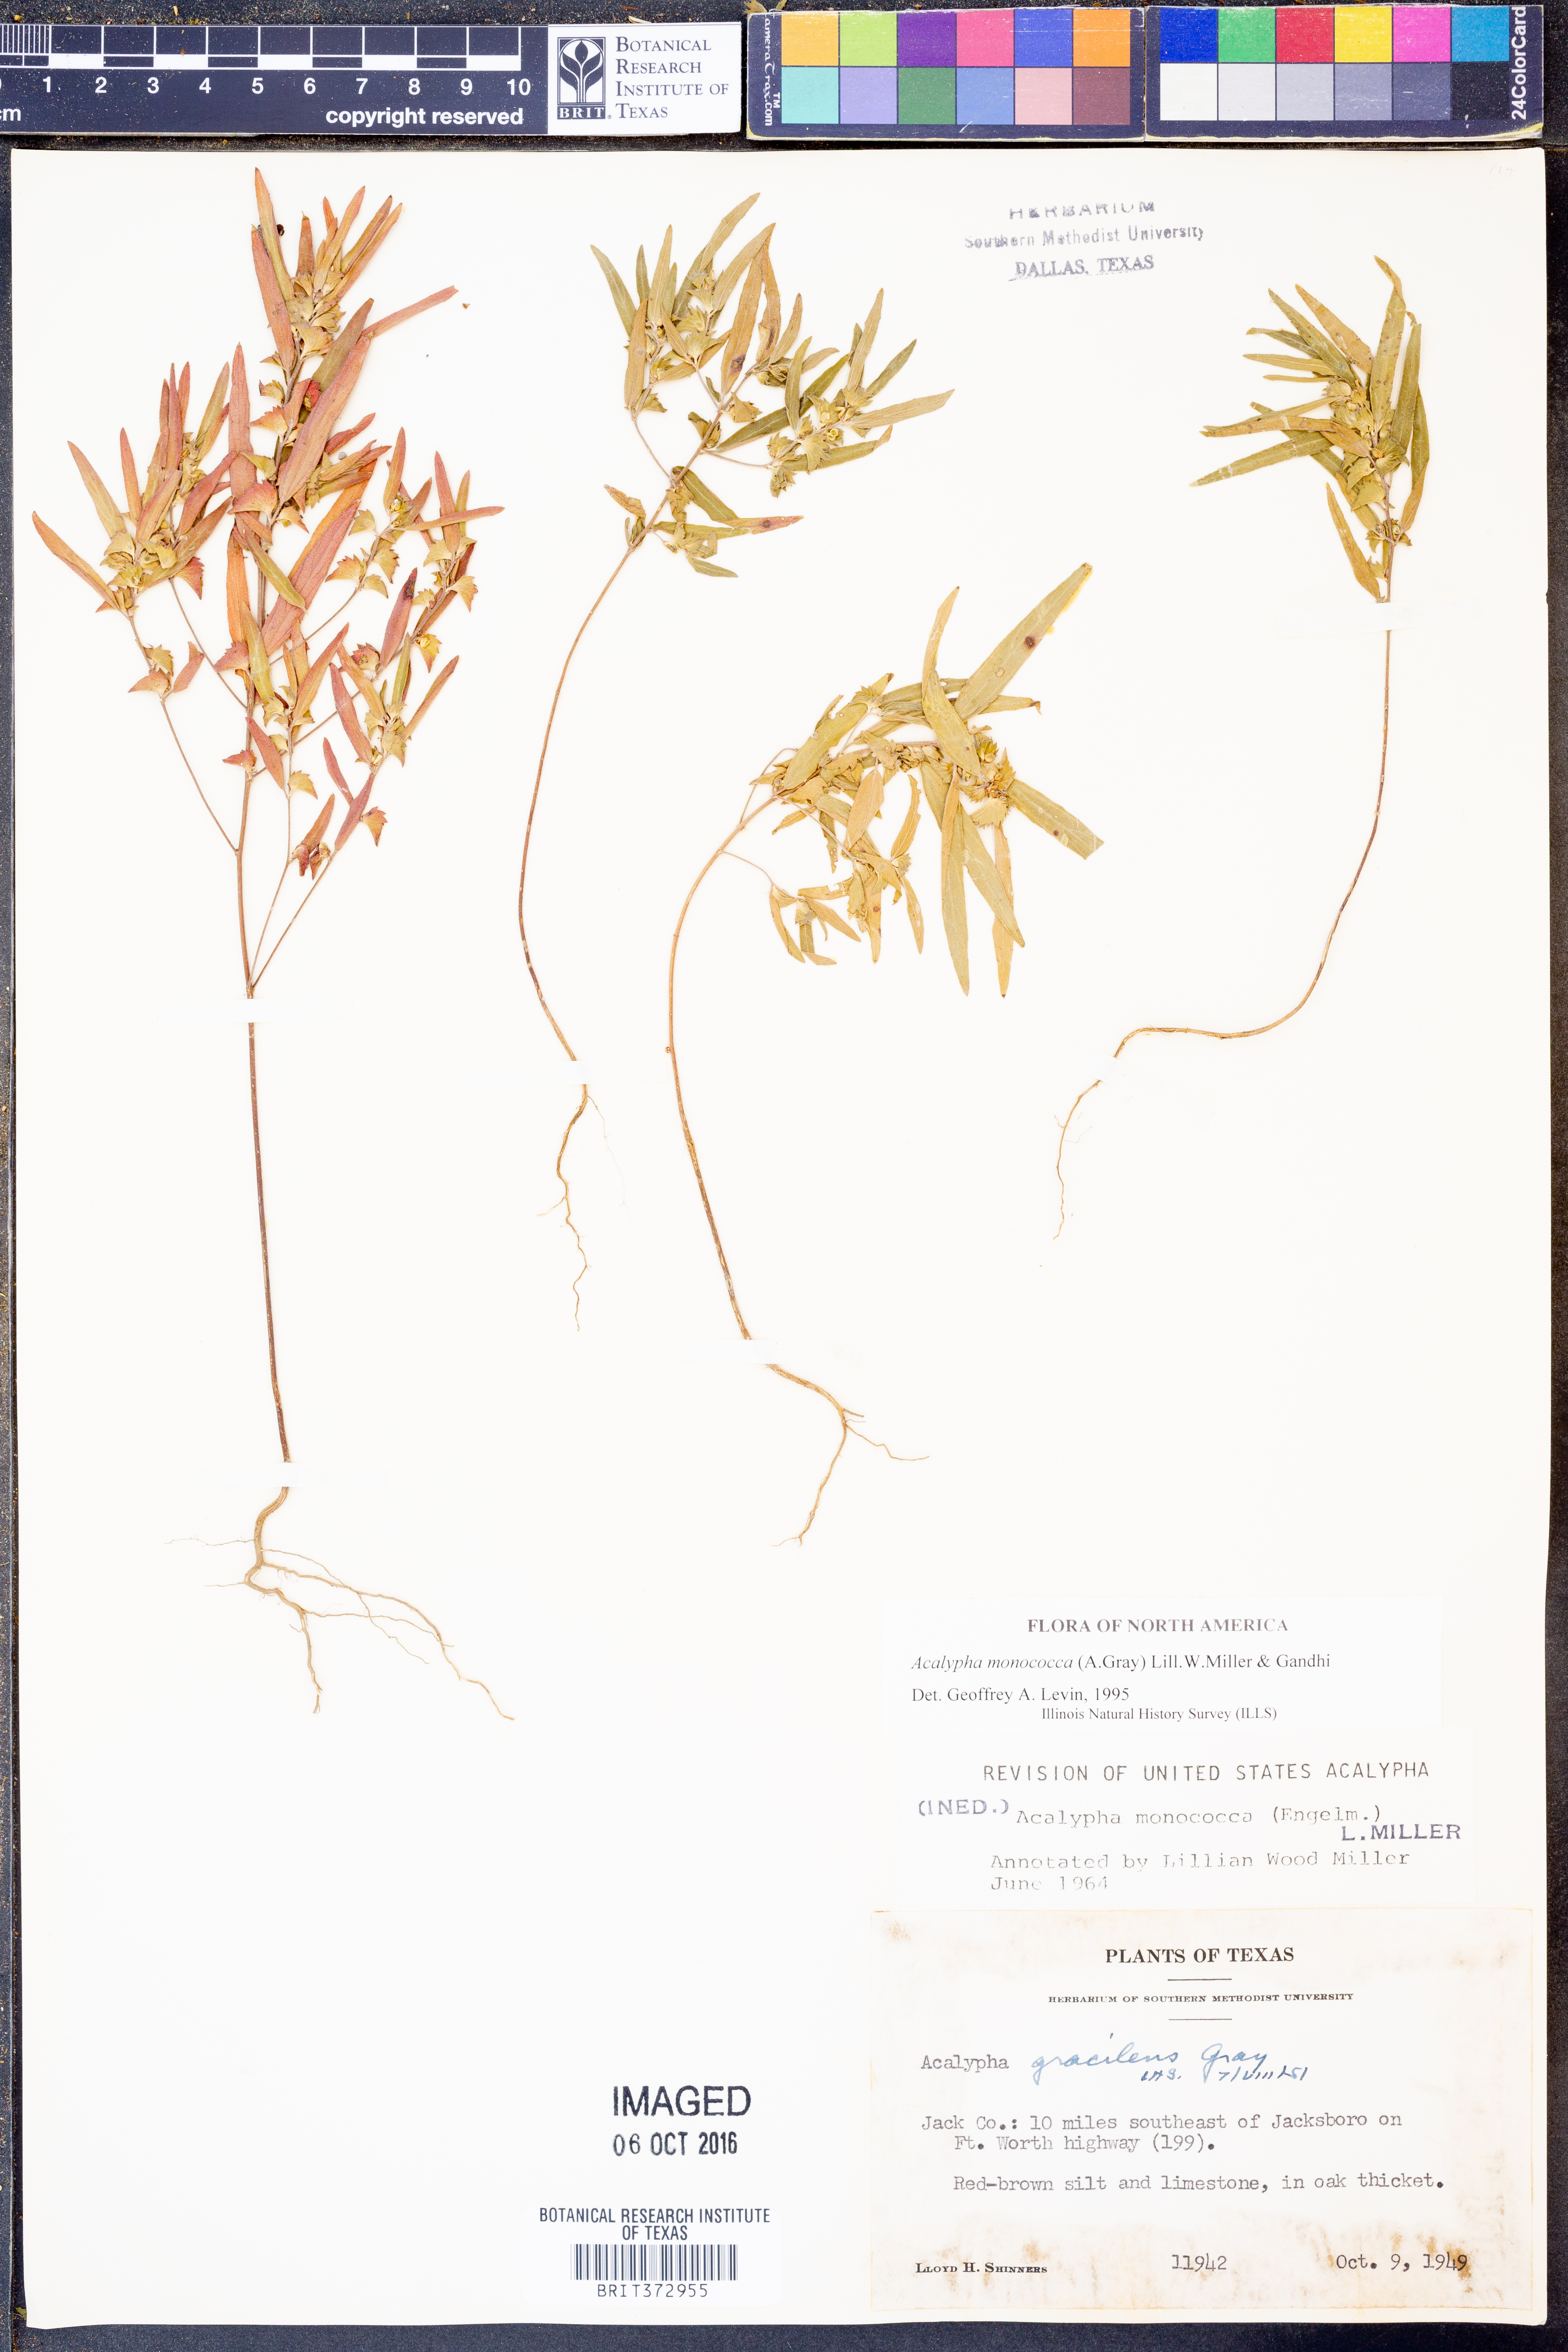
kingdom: Plantae
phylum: Tracheophyta
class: Magnoliopsida
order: Malpighiales
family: Euphorbiaceae
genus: Acalypha
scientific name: Acalypha monococca
